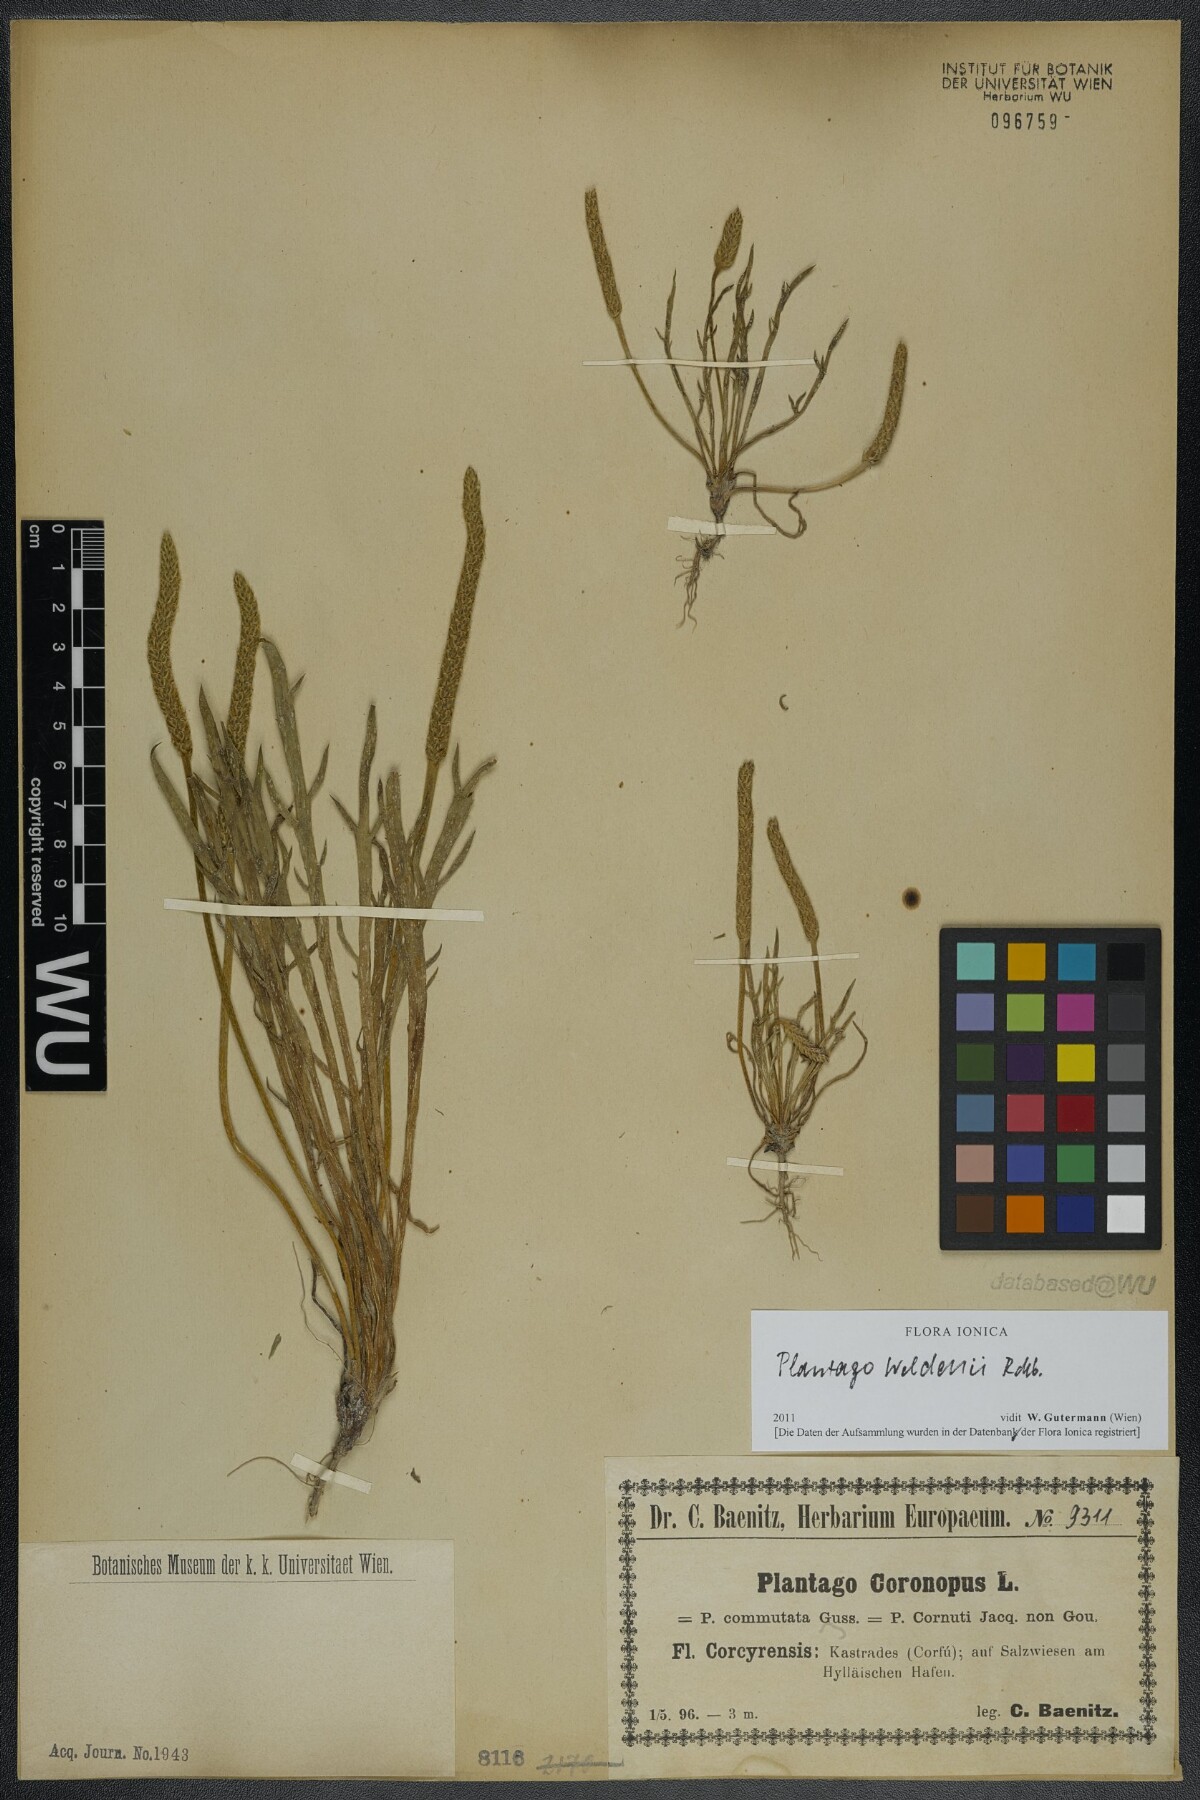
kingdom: Plantae
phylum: Tracheophyta
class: Magnoliopsida
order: Lamiales
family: Plantaginaceae
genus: Plantago
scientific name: Plantago weldenii
